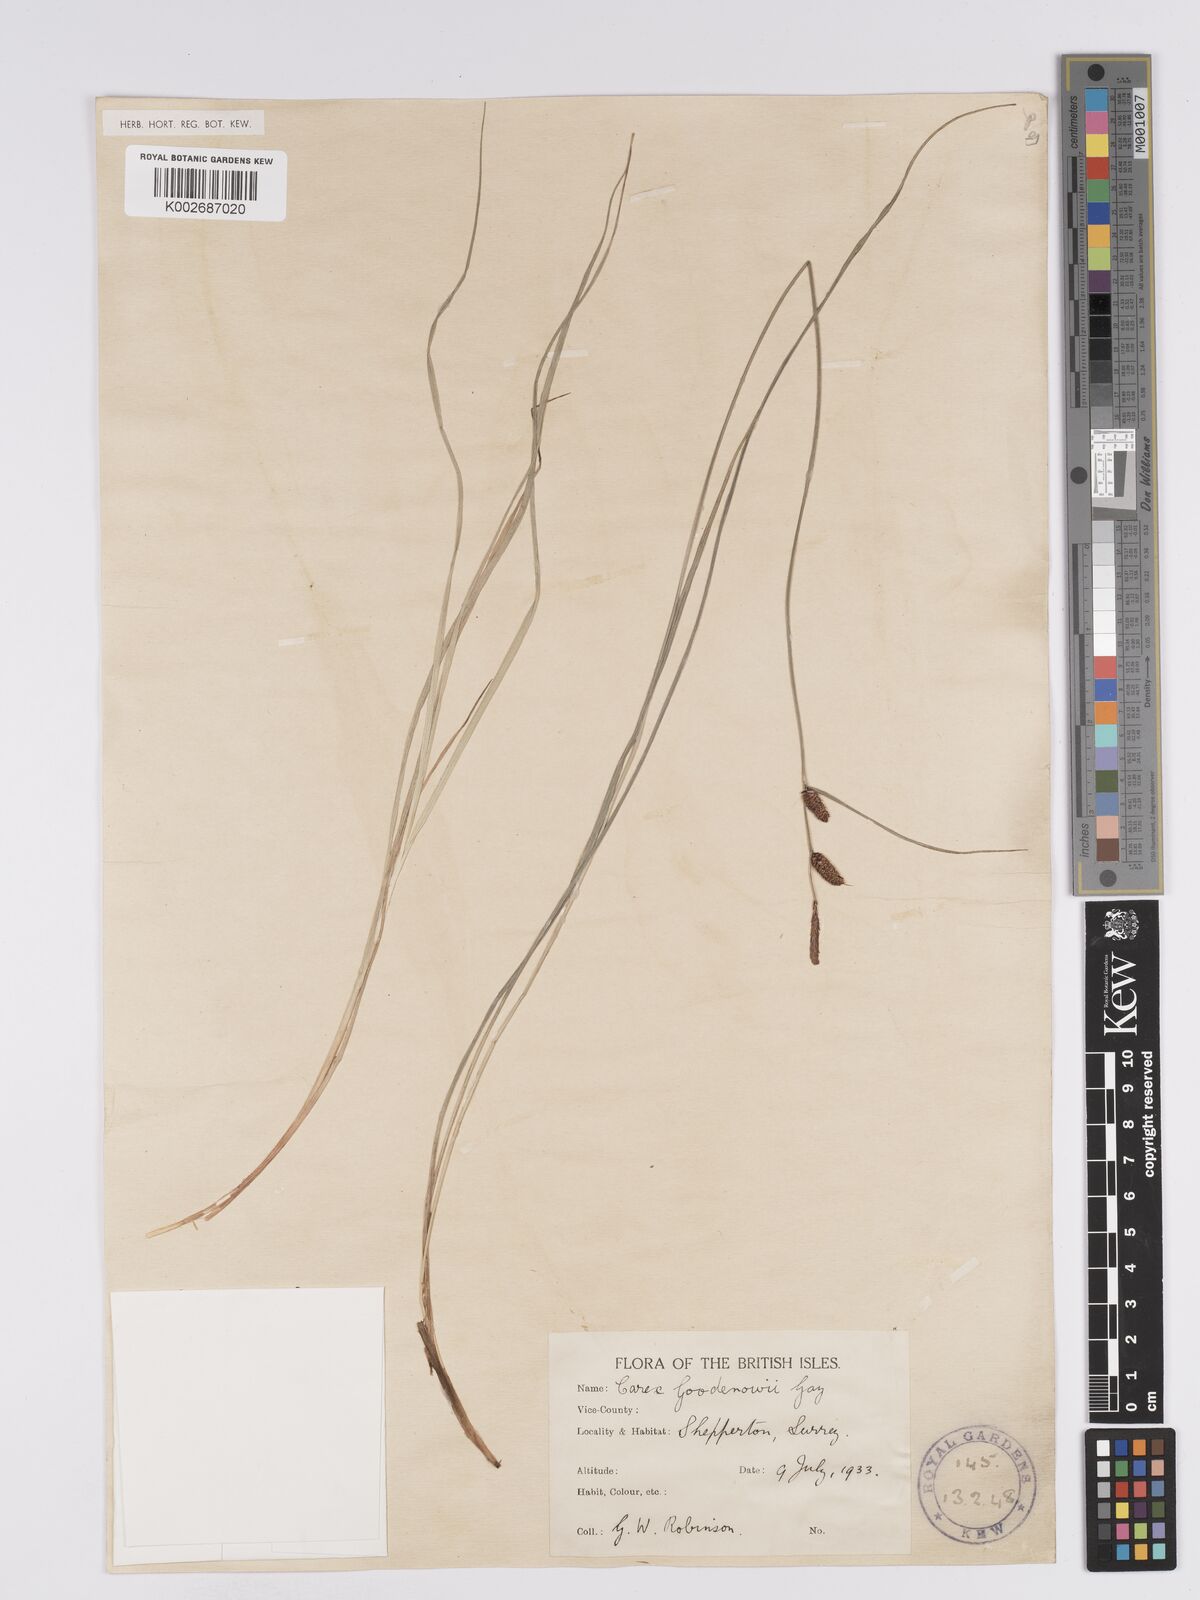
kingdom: Plantae
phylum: Tracheophyta
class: Liliopsida
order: Poales
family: Cyperaceae
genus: Carex
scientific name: Carex nigra
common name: Common sedge
